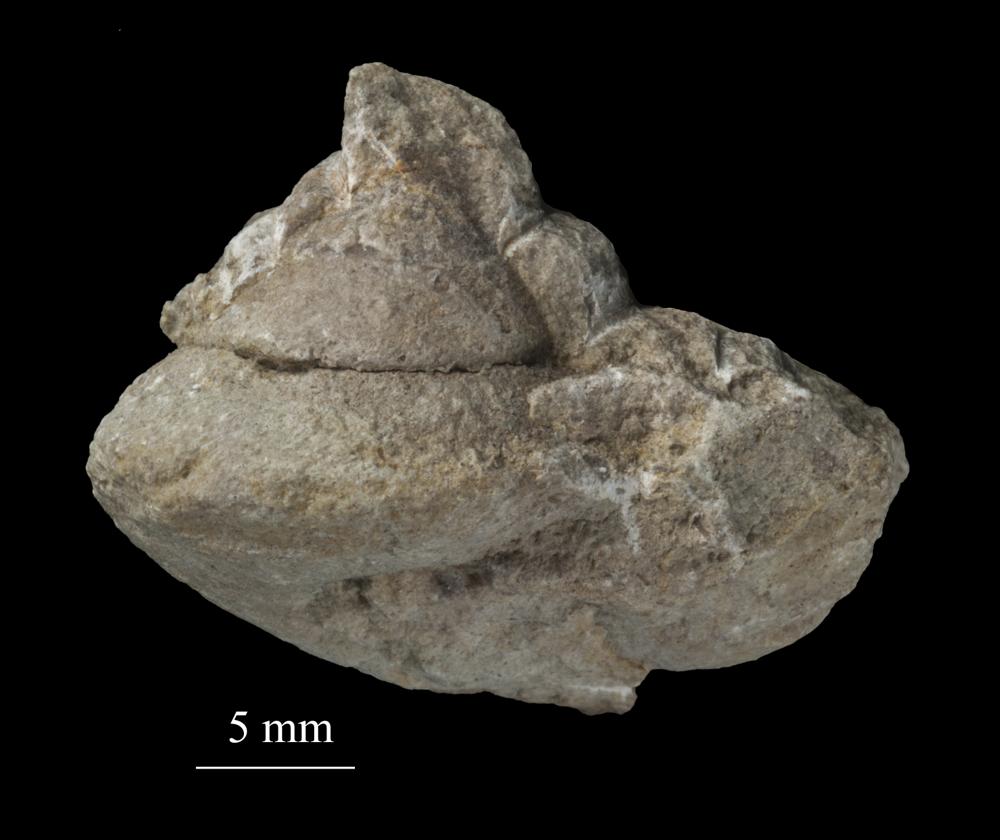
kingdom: Animalia
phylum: Mollusca
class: Gastropoda
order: Trochida
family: Trochidae
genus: Trochus
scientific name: Trochus ellipticus
